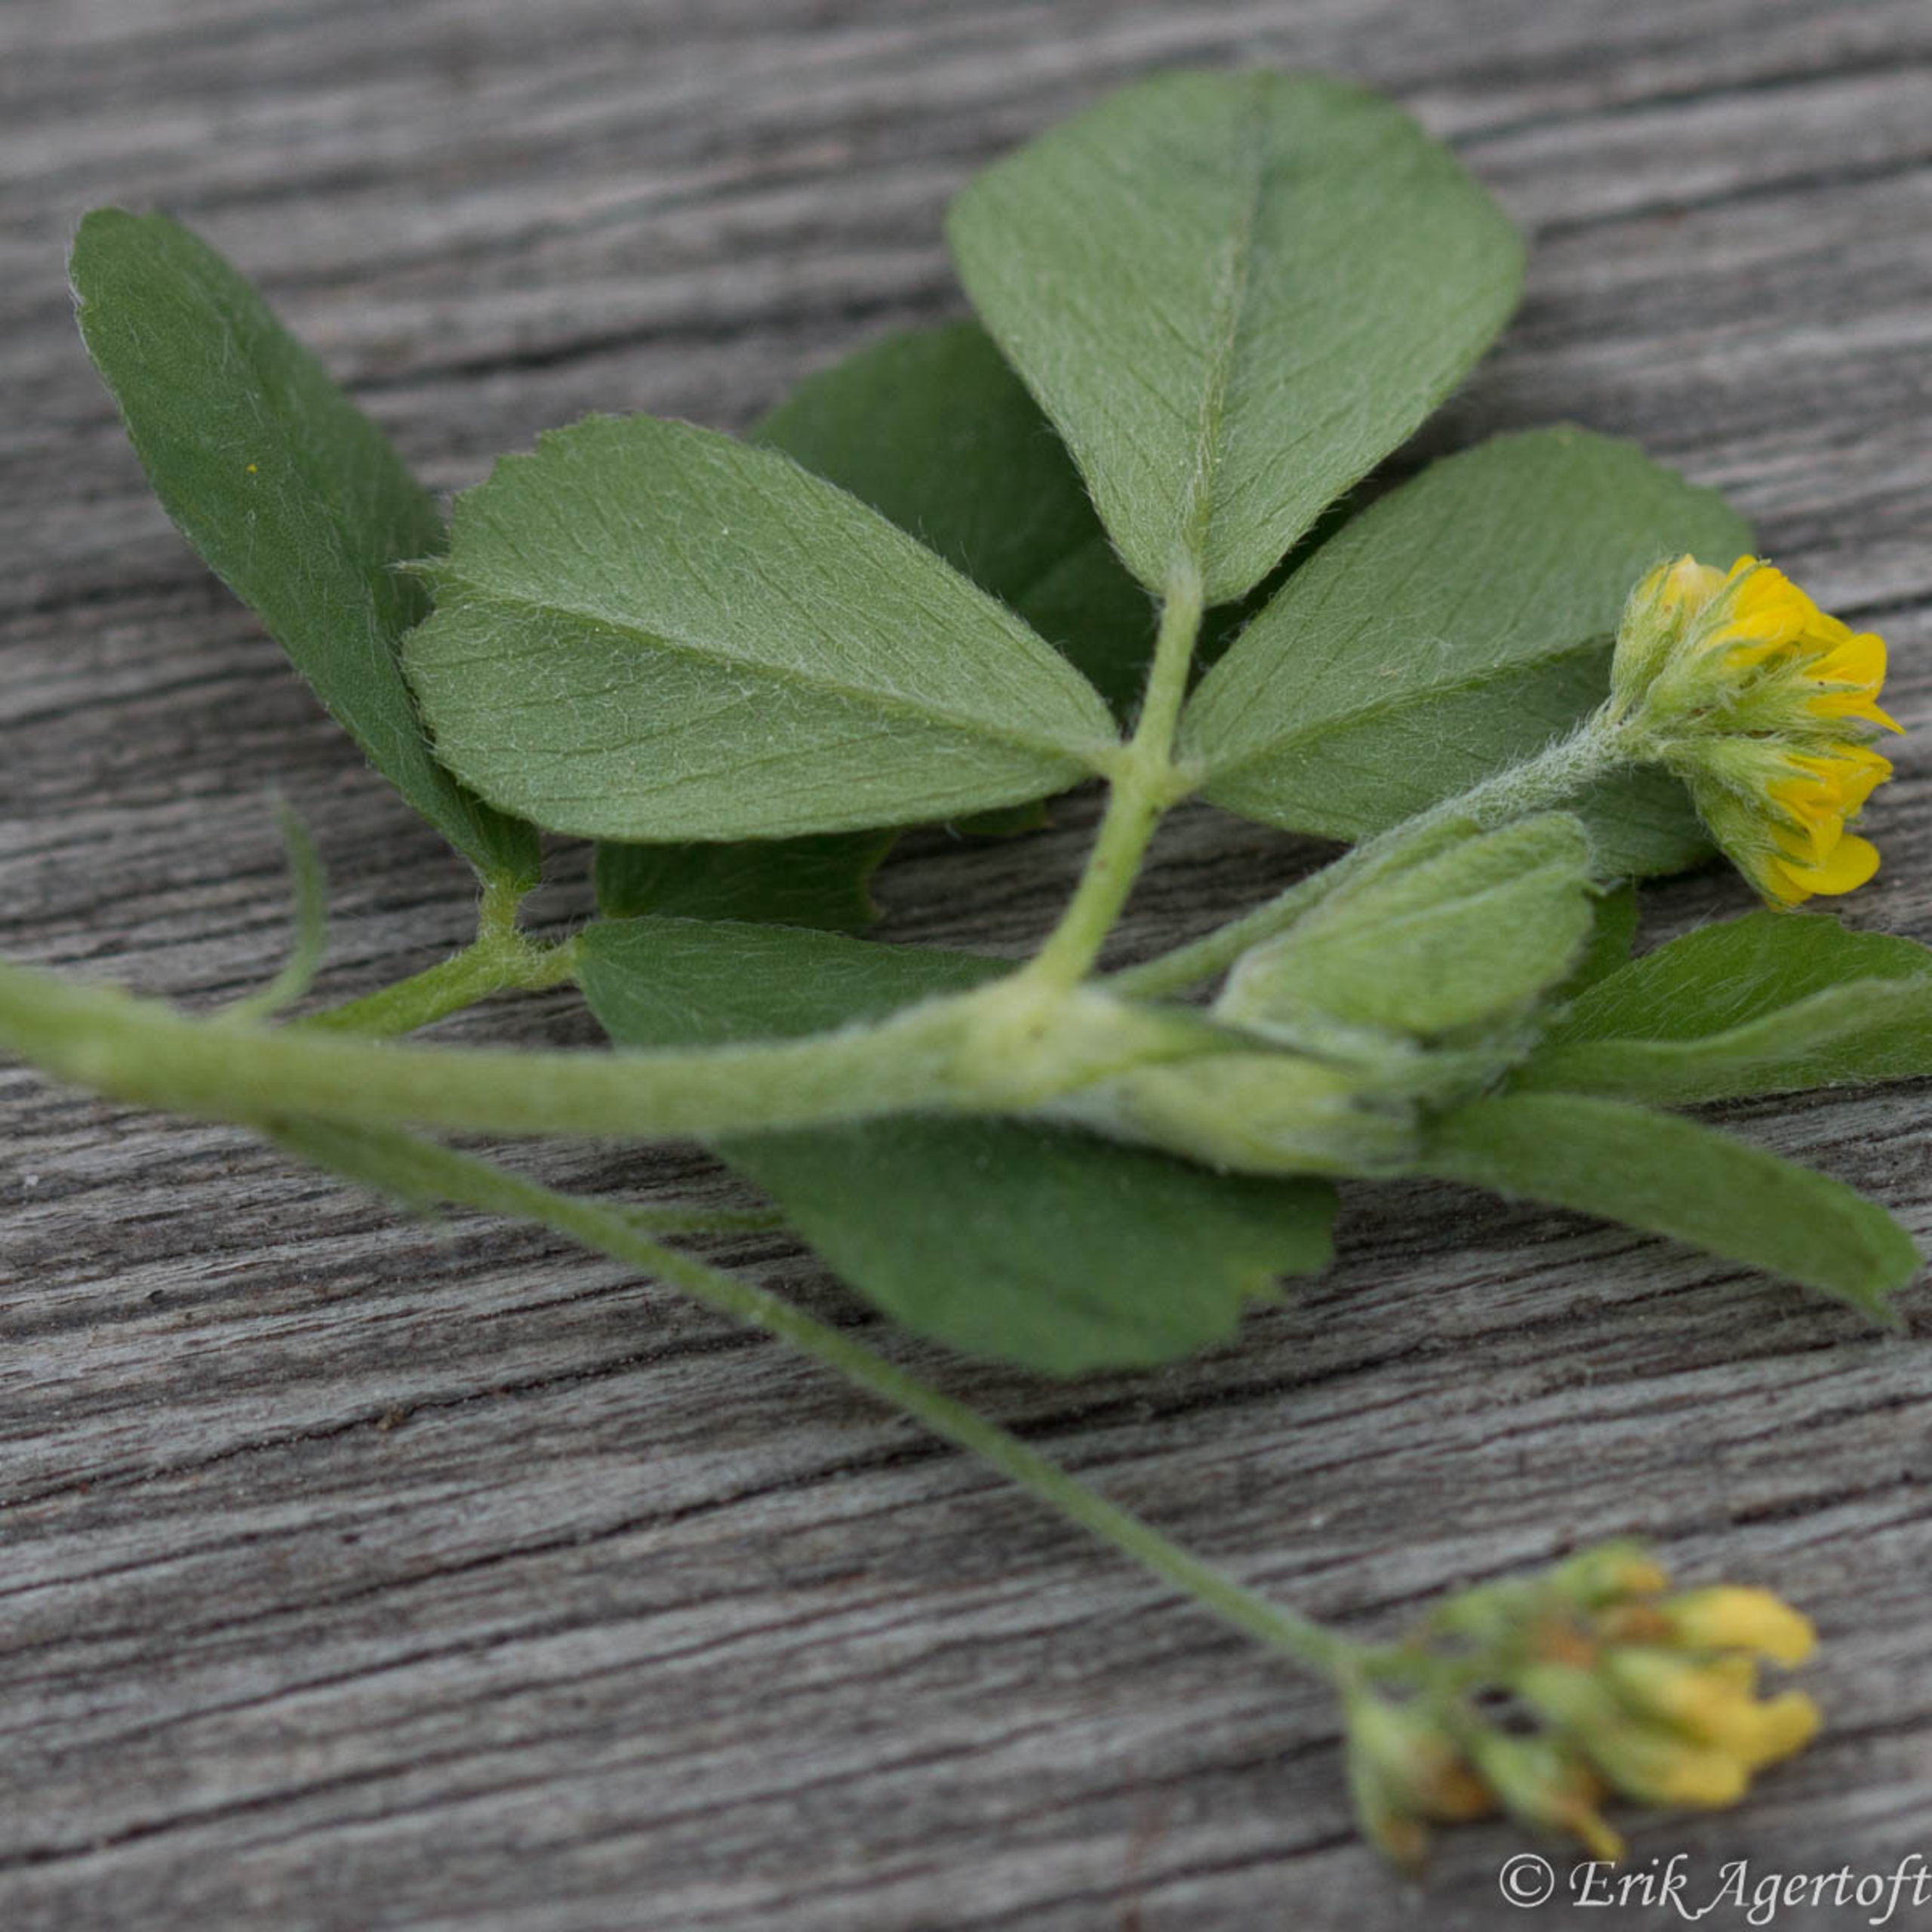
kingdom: Plantae
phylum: Tracheophyta
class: Magnoliopsida
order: Fabales
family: Fabaceae
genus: Medicago
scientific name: Medicago lupulina
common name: Humle-sneglebælg
